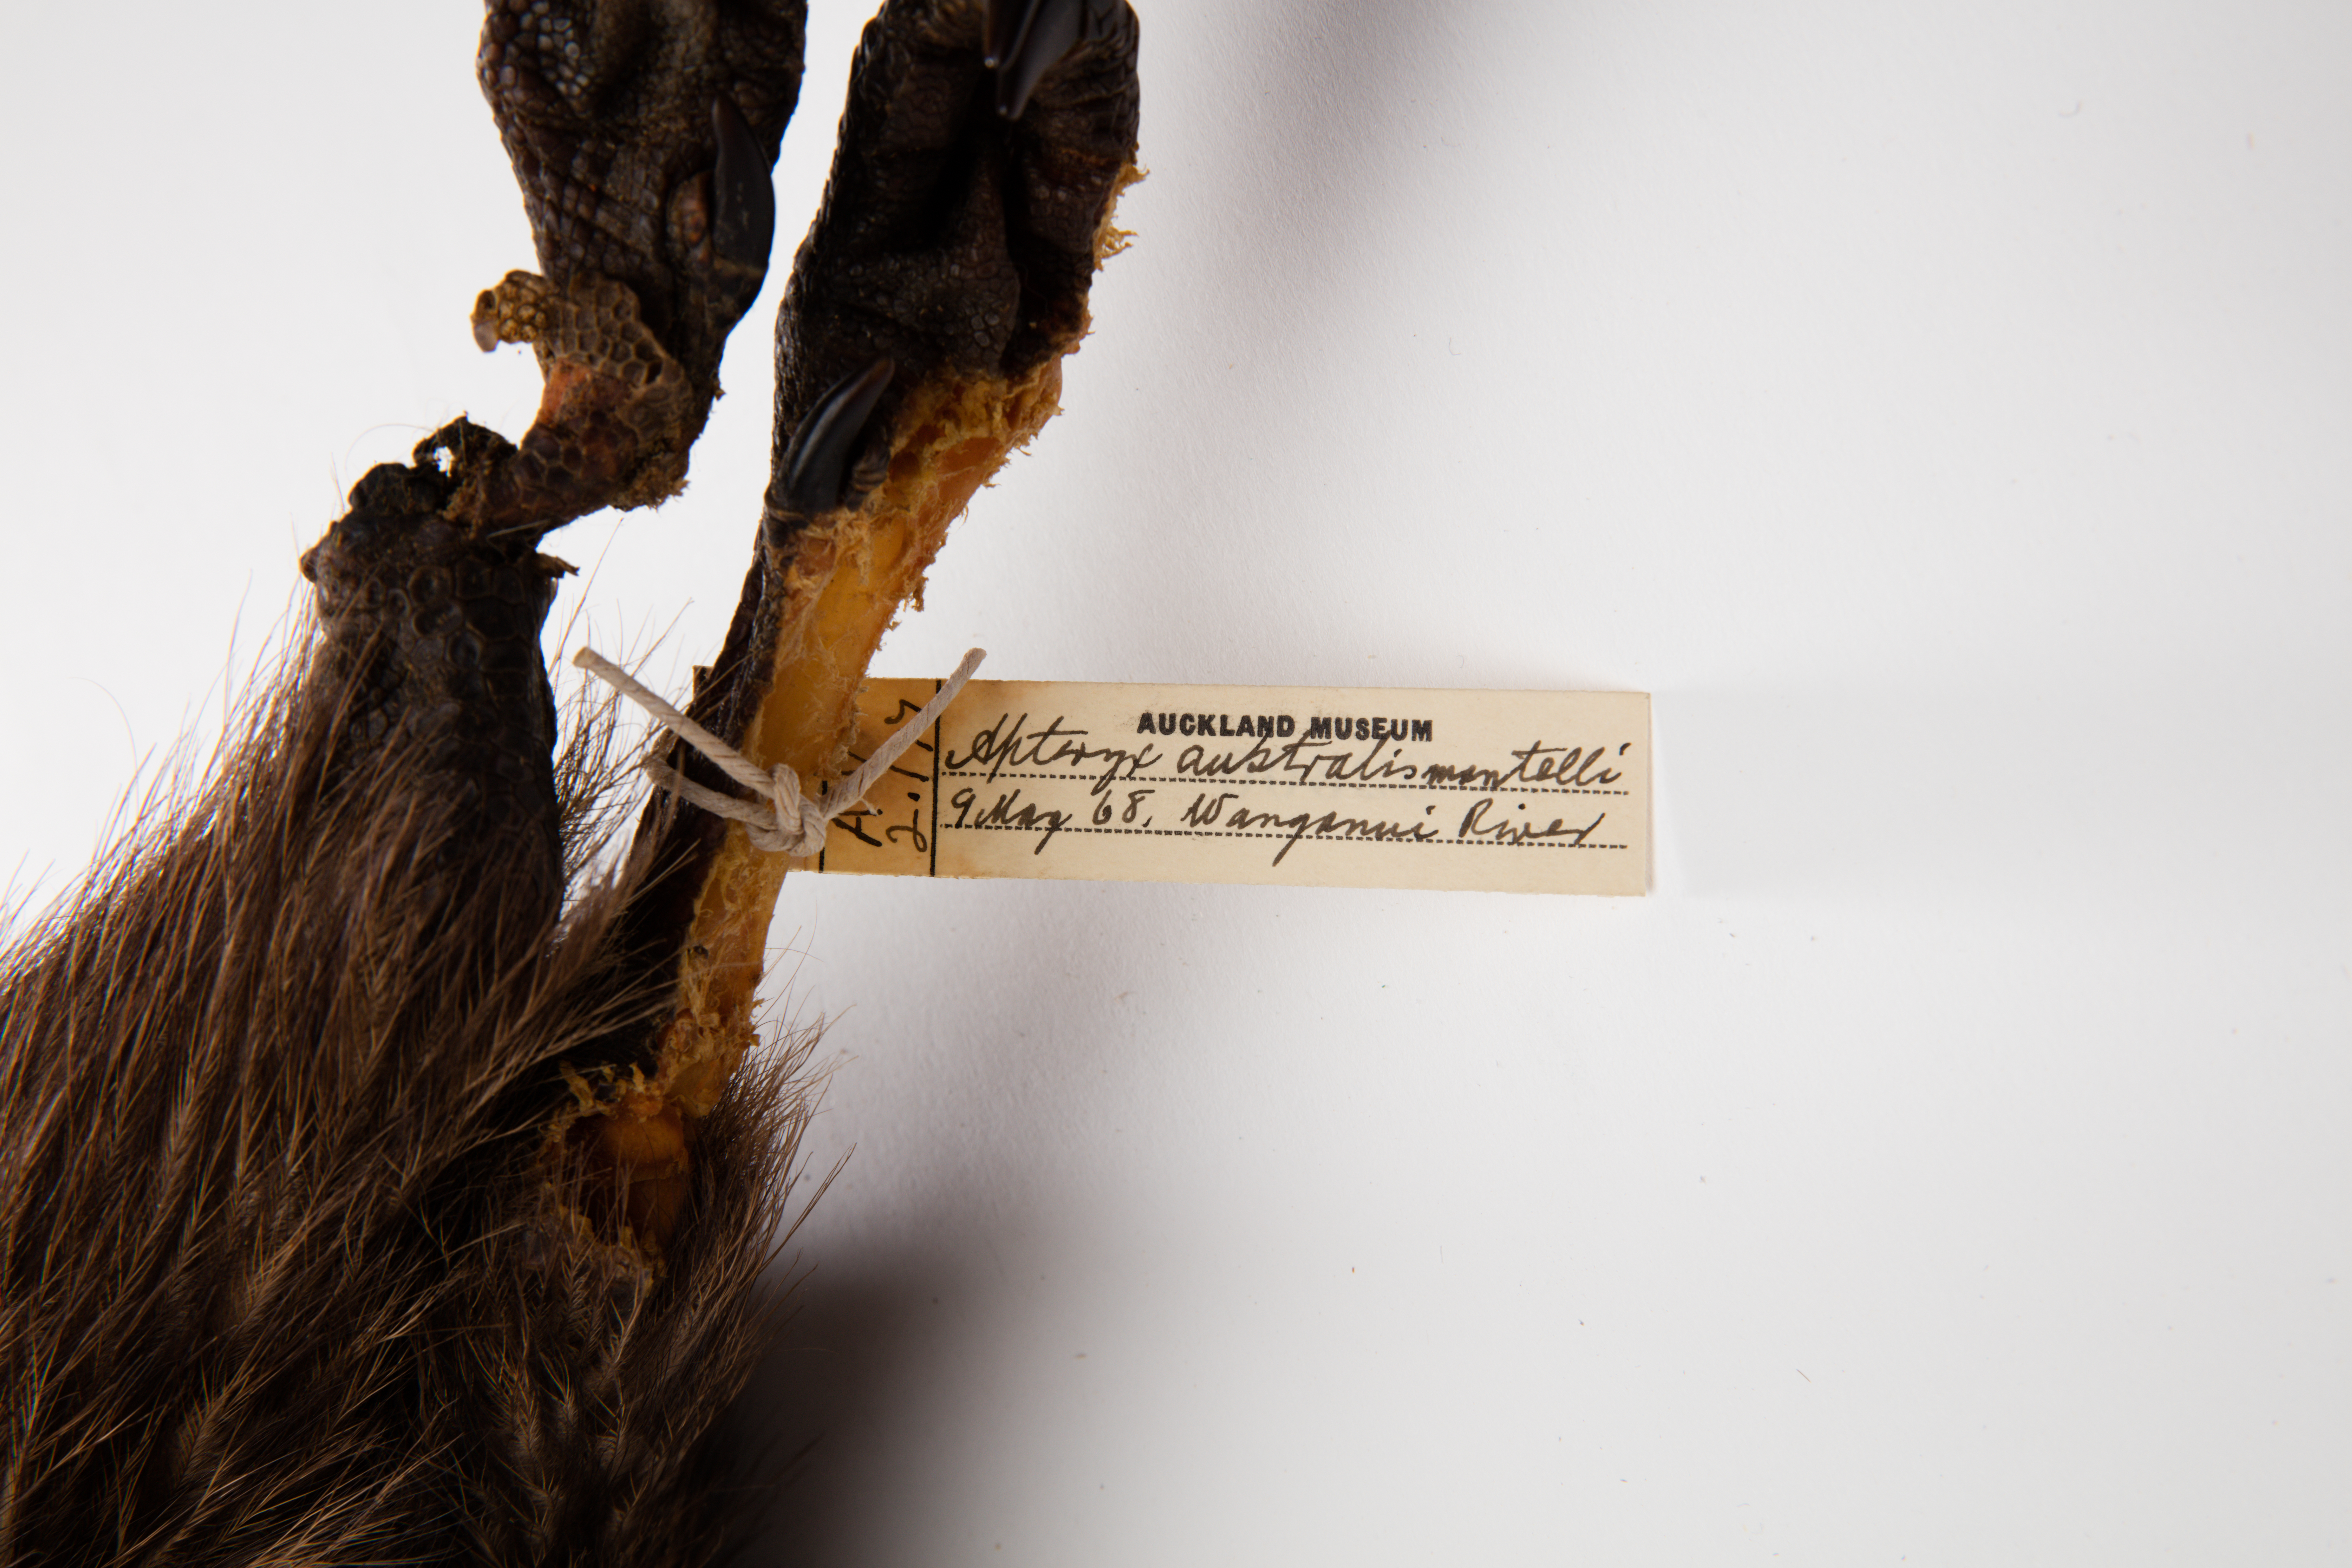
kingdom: Animalia
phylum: Chordata
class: Aves
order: Apterygiformes
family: Apterygidae
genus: Apteryx
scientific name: Apteryx mantelli
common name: North island brown kiwi
